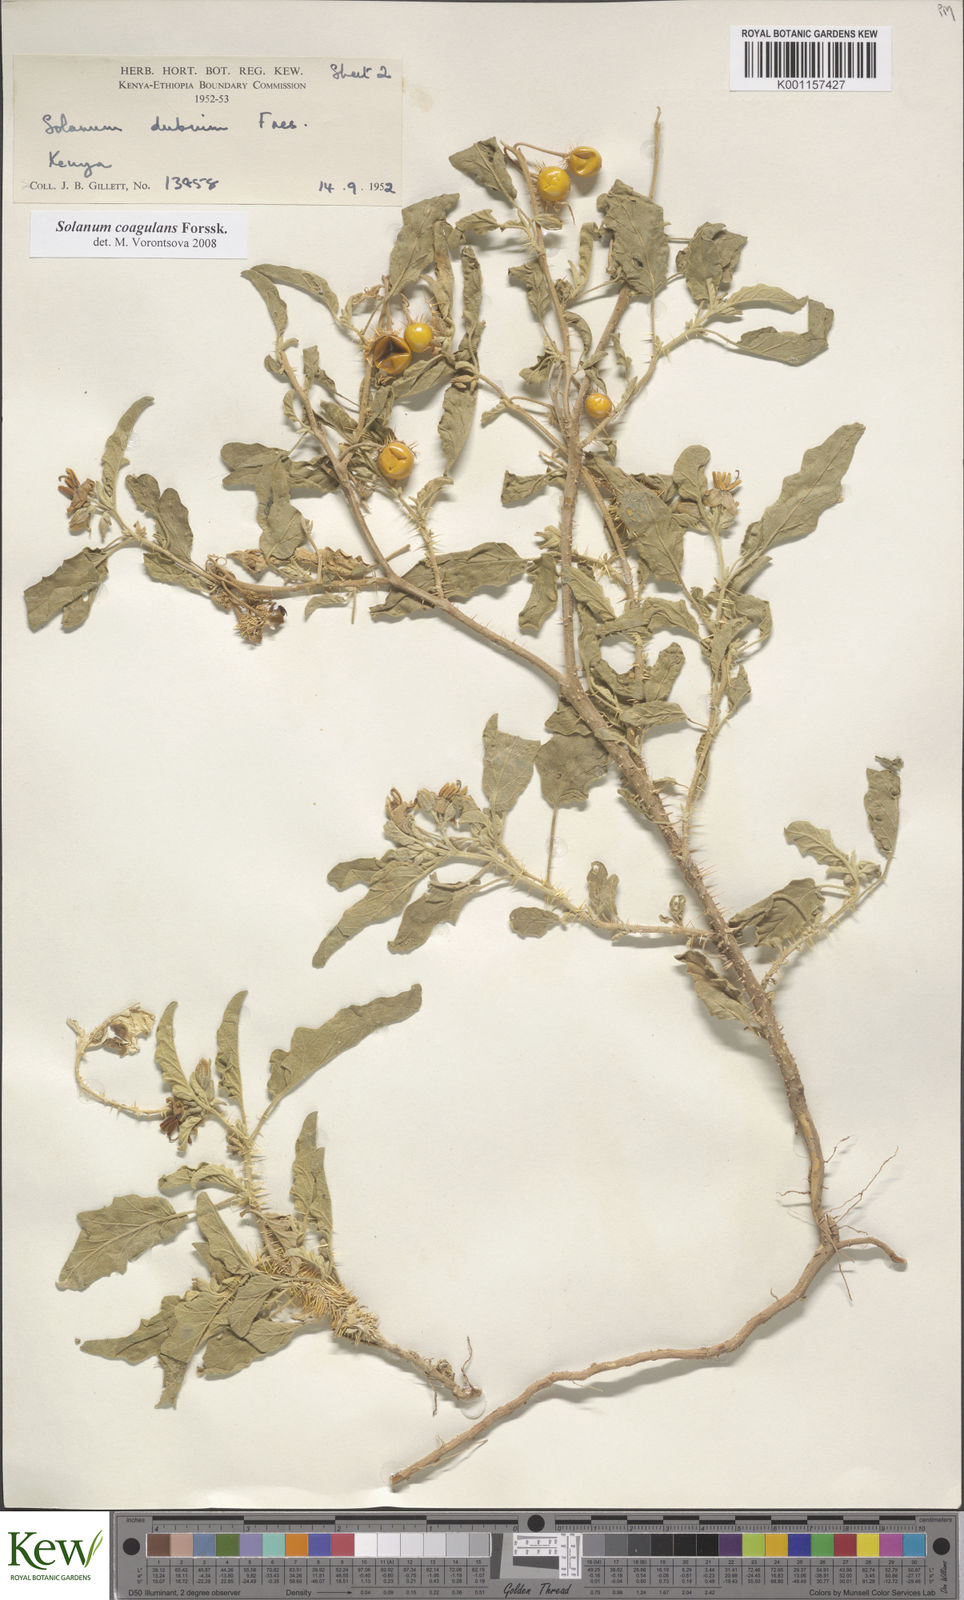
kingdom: Plantae
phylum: Tracheophyta
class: Magnoliopsida
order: Solanales
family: Solanaceae
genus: Solanum
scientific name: Solanum coagulans
